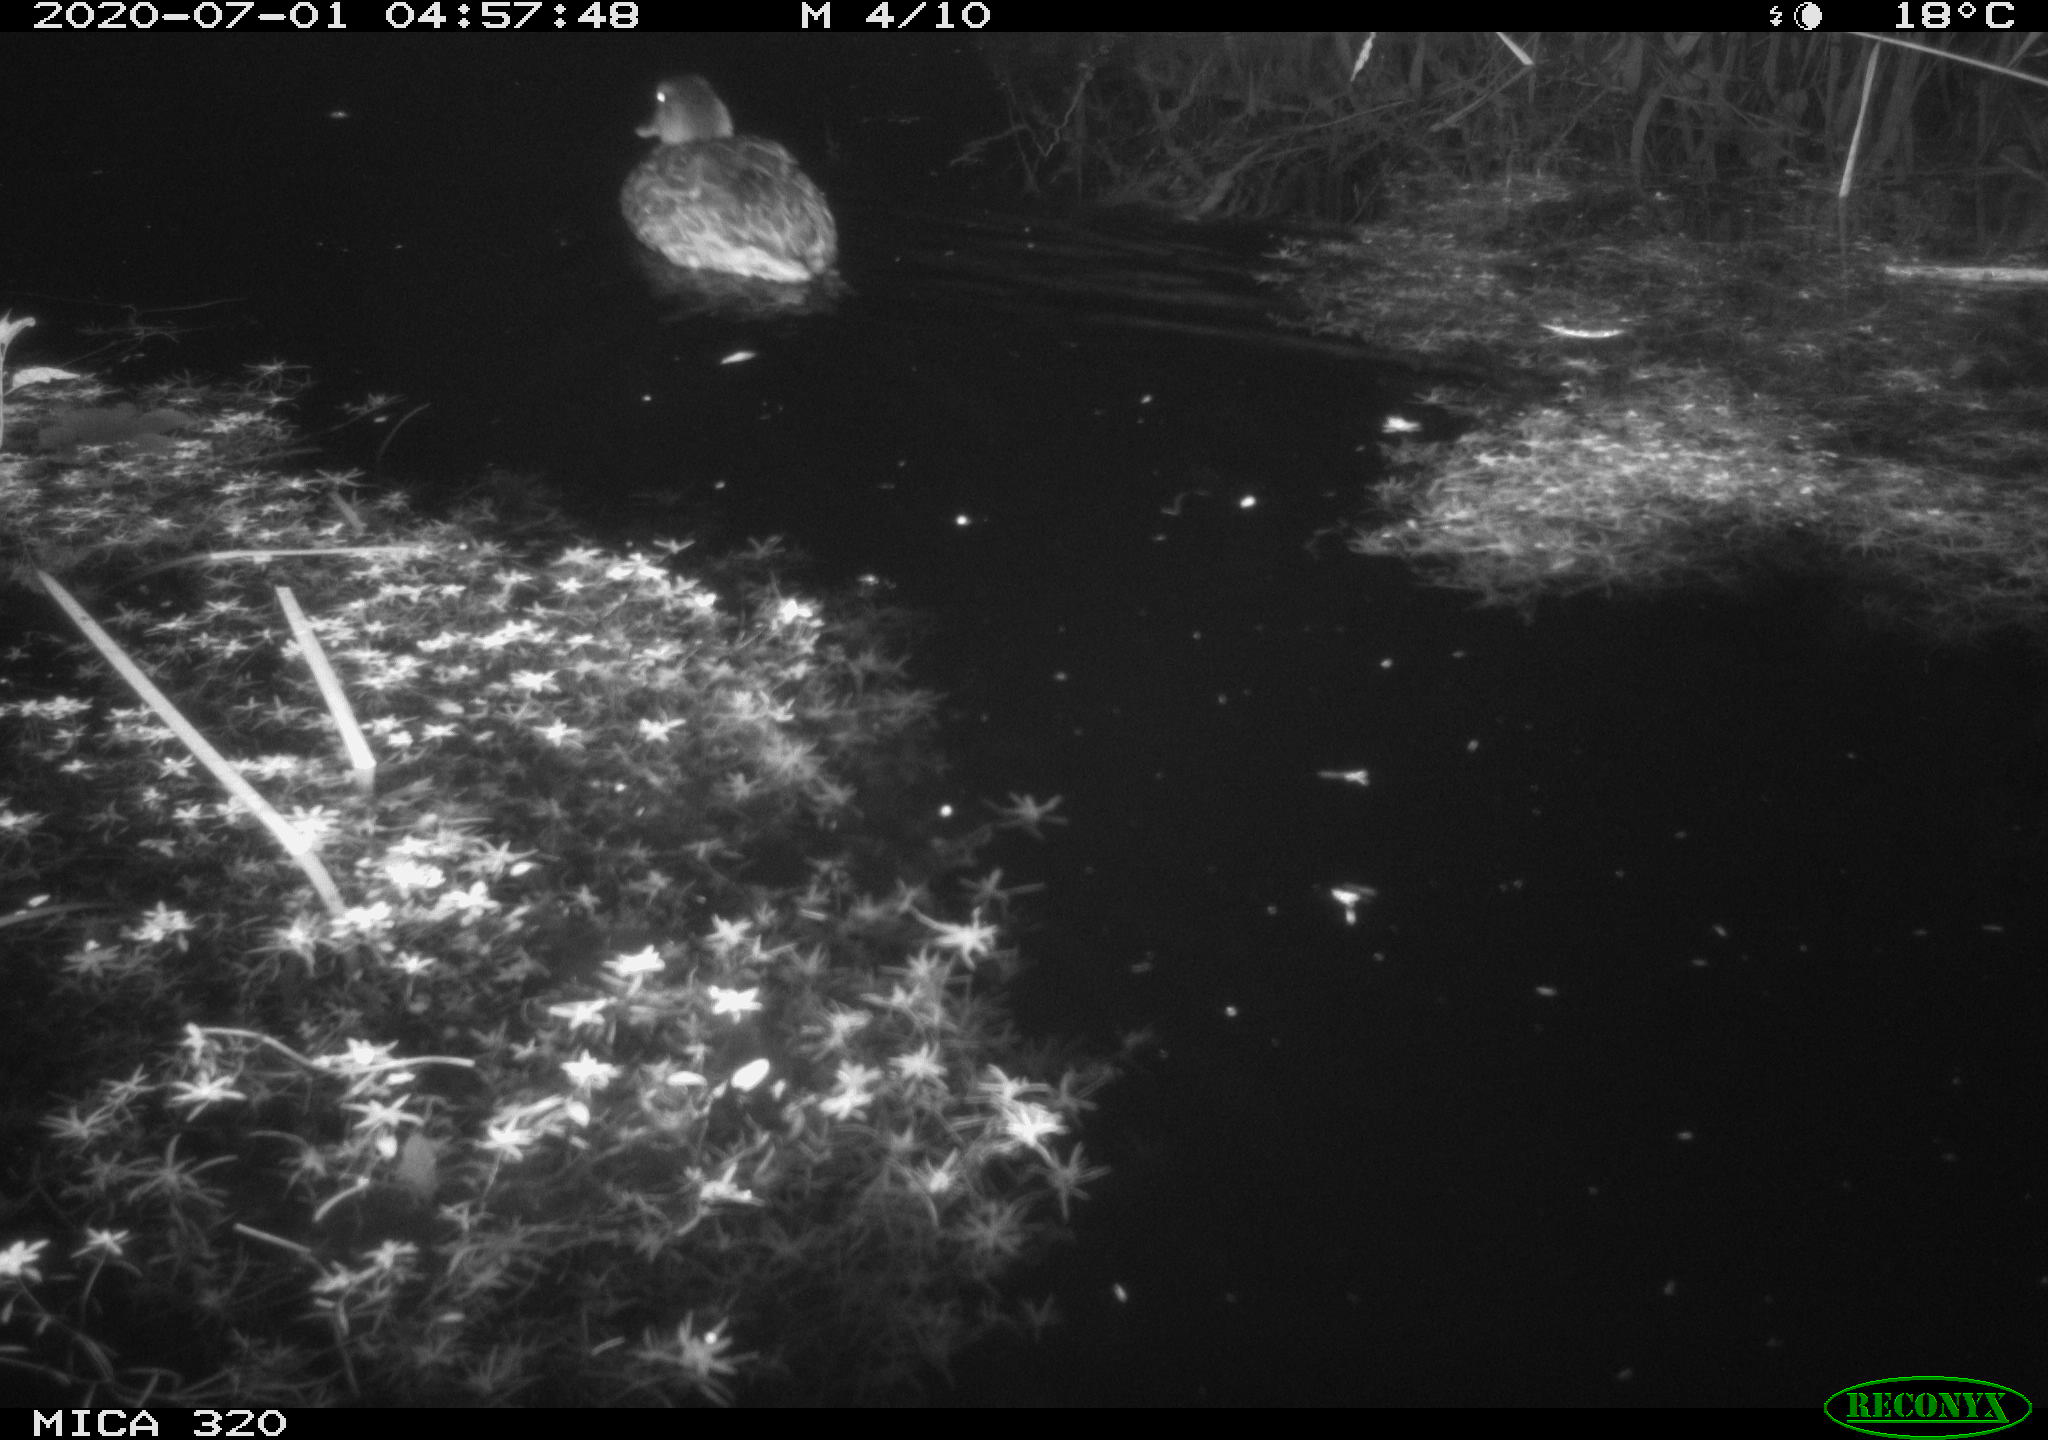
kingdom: Animalia
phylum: Chordata
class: Aves
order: Anseriformes
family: Anatidae
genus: Anas
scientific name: Anas platyrhynchos
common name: Mallard
